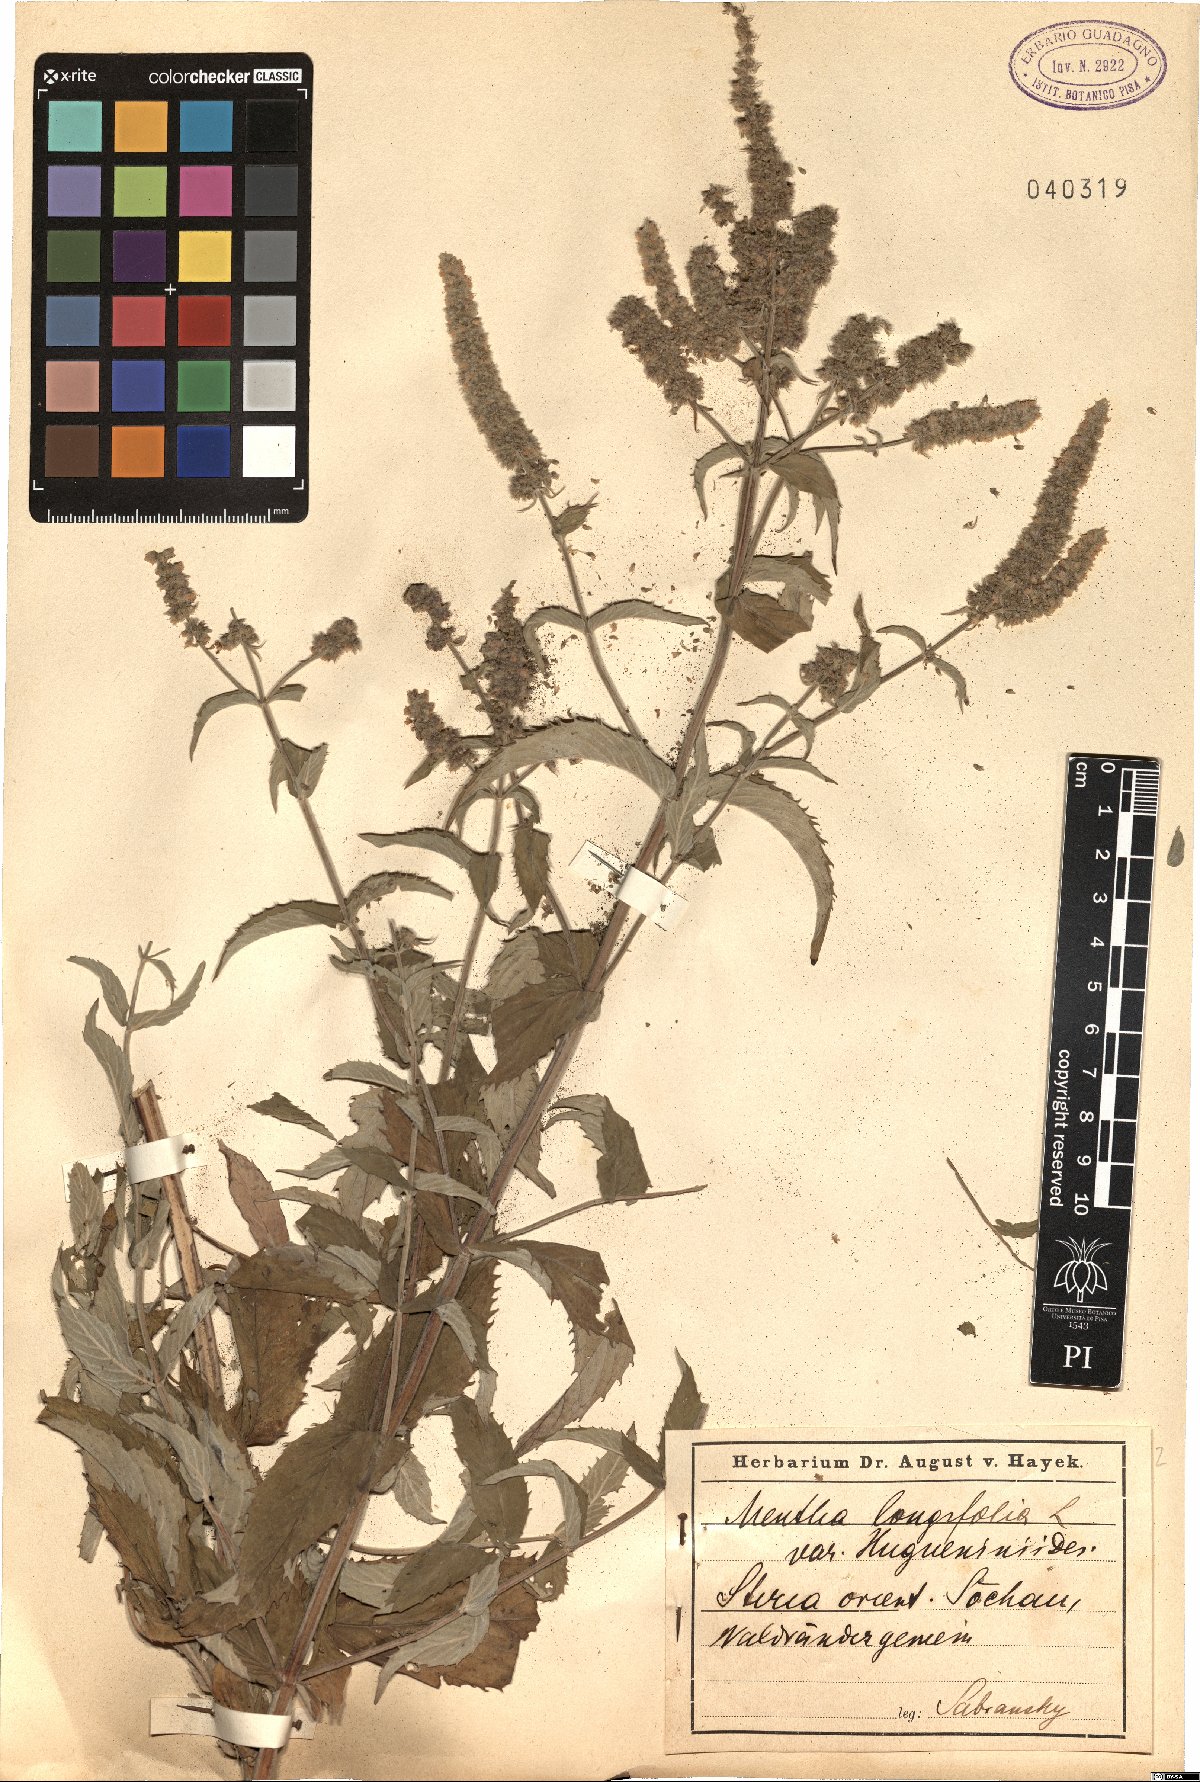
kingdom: Plantae
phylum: Tracheophyta
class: Magnoliopsida
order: Lamiales
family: Lamiaceae
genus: Mentha
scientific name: Mentha longifolia
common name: Horse mint
